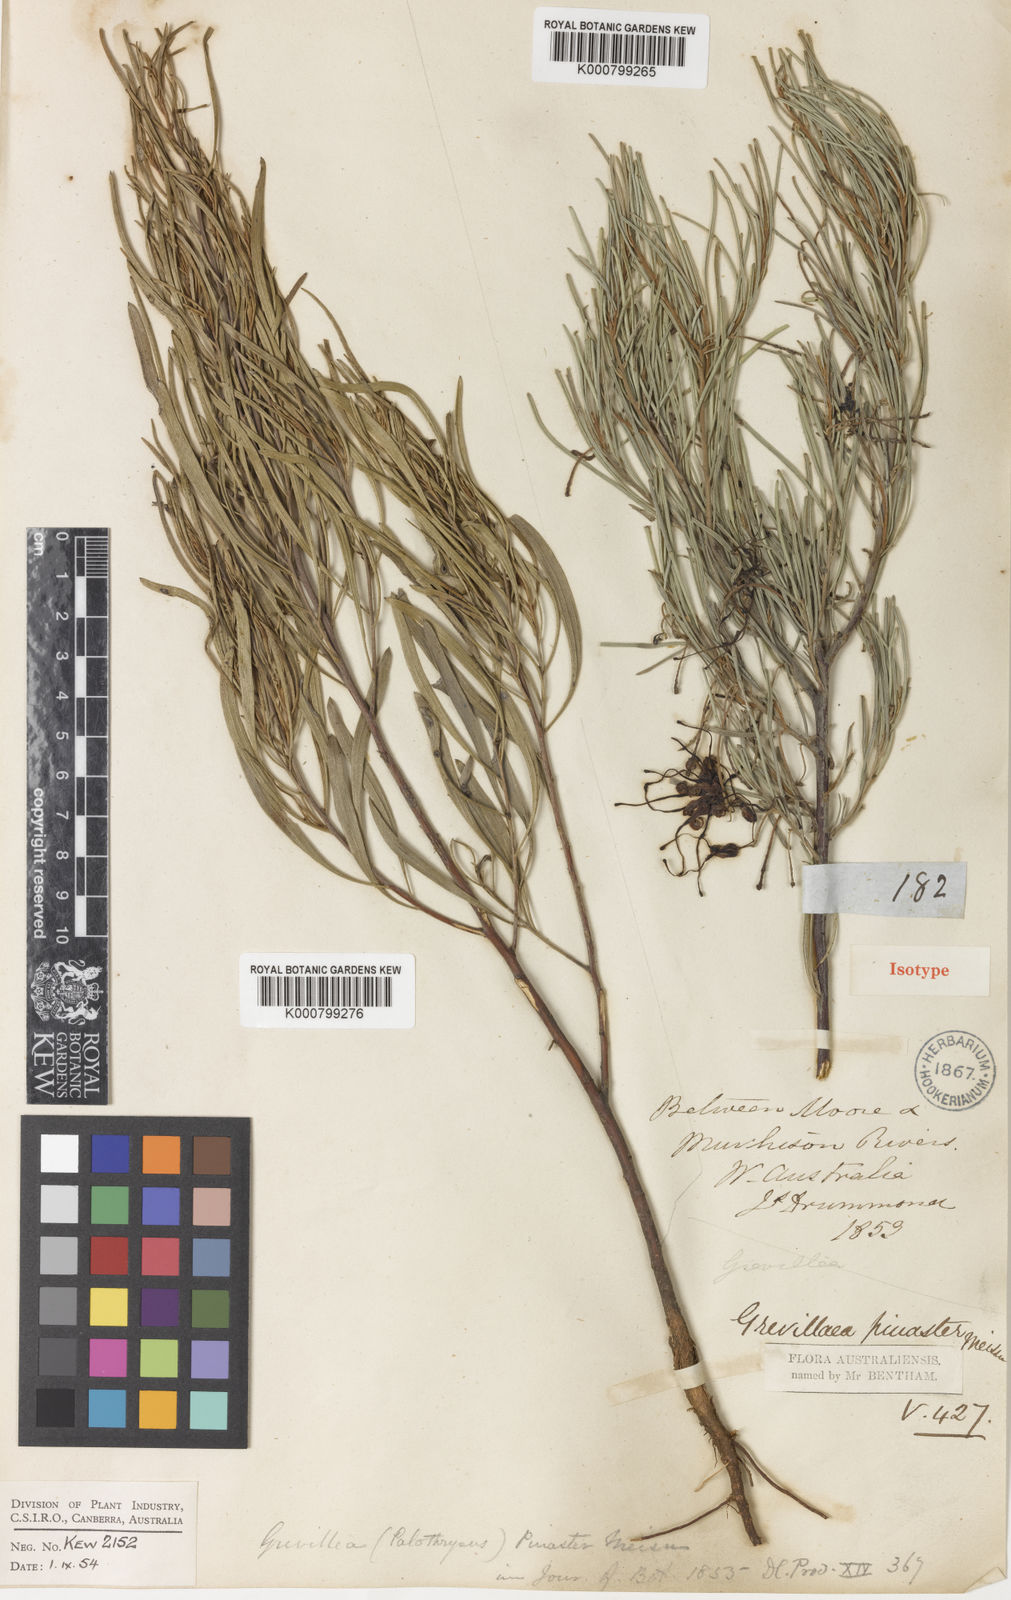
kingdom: Plantae
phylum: Tracheophyta
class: Magnoliopsida
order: Proteales
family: Proteaceae
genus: Grevillea
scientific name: Grevillea pinaster
